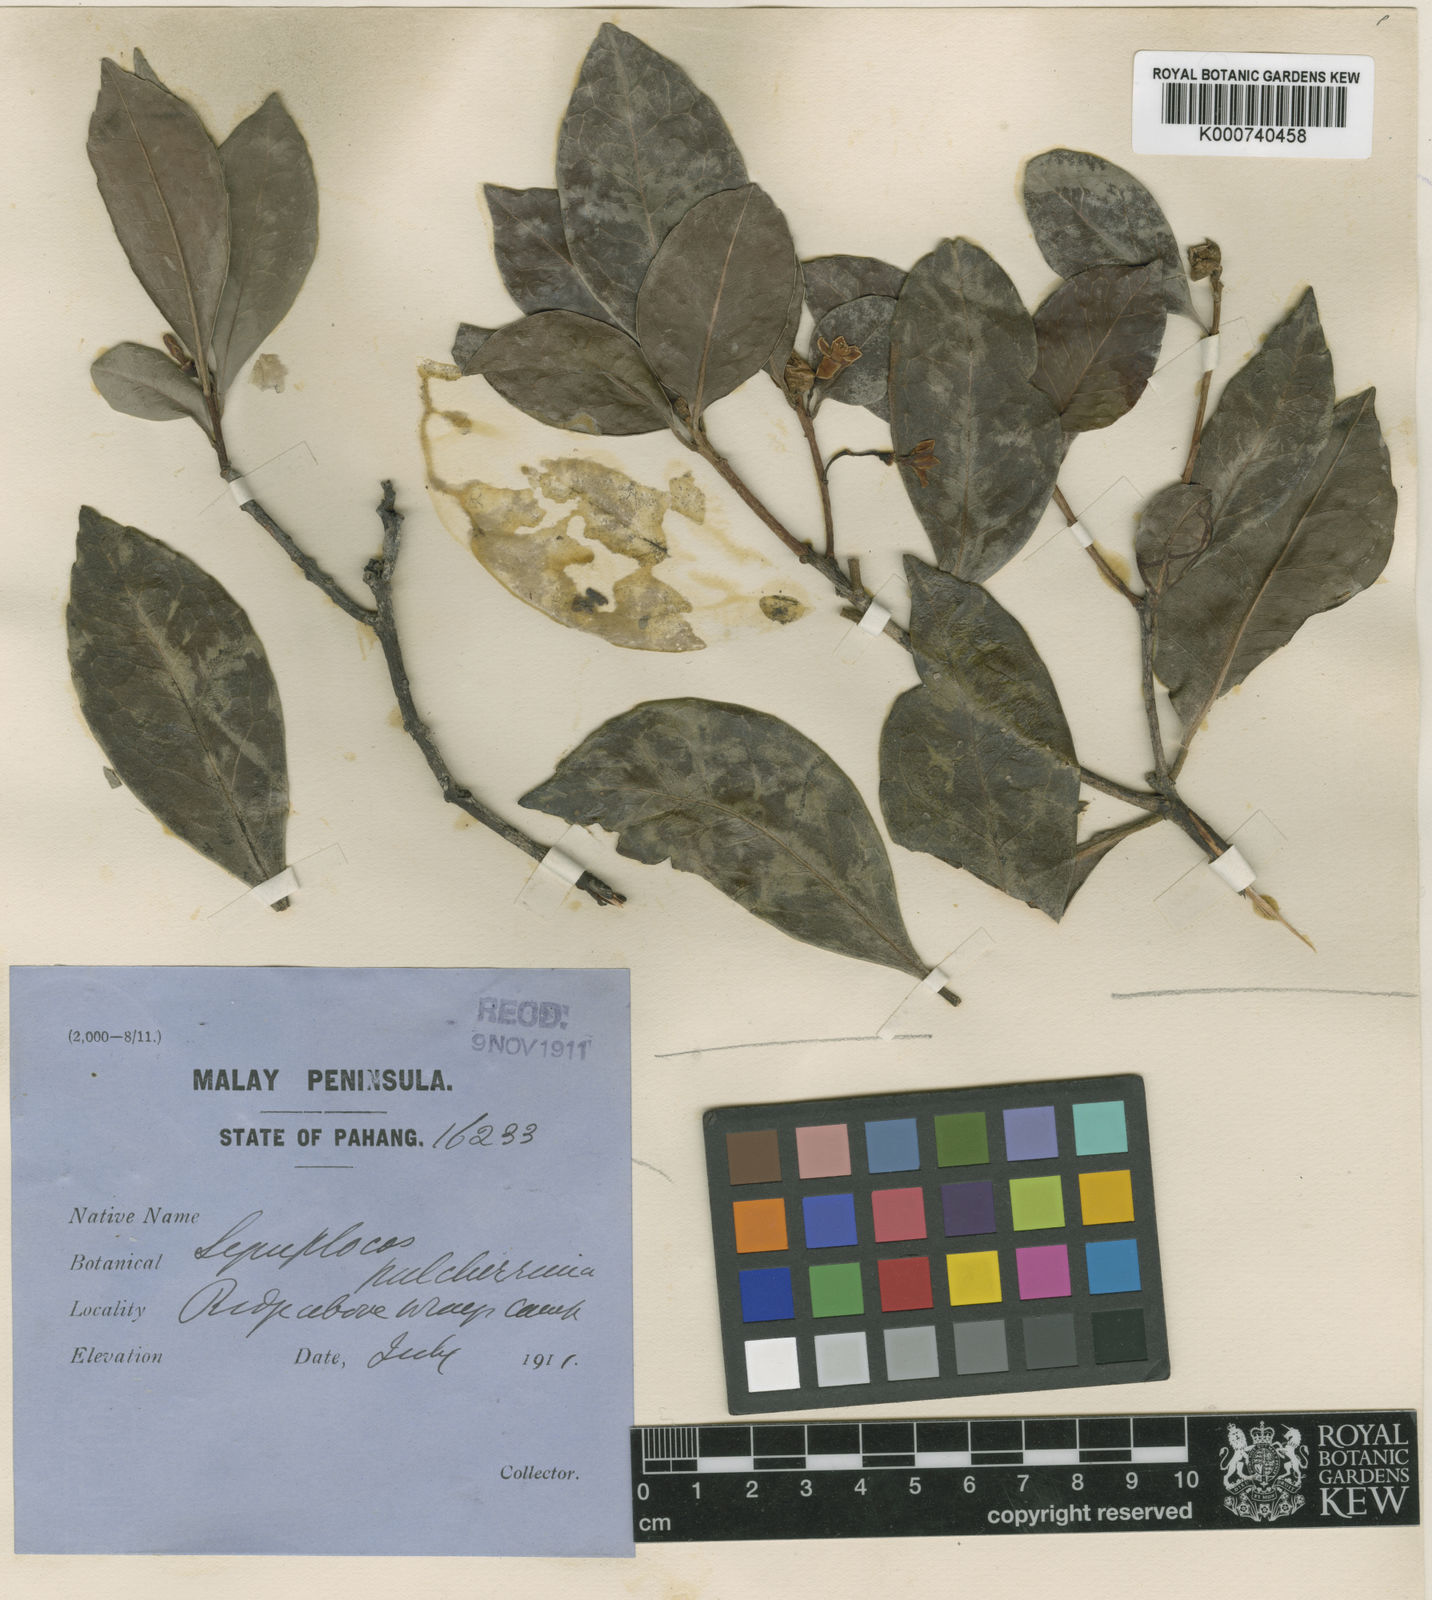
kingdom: Plantae
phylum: Tracheophyta
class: Magnoliopsida
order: Ericales
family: Symplocaceae
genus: Symplocos
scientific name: Symplocos pendula
